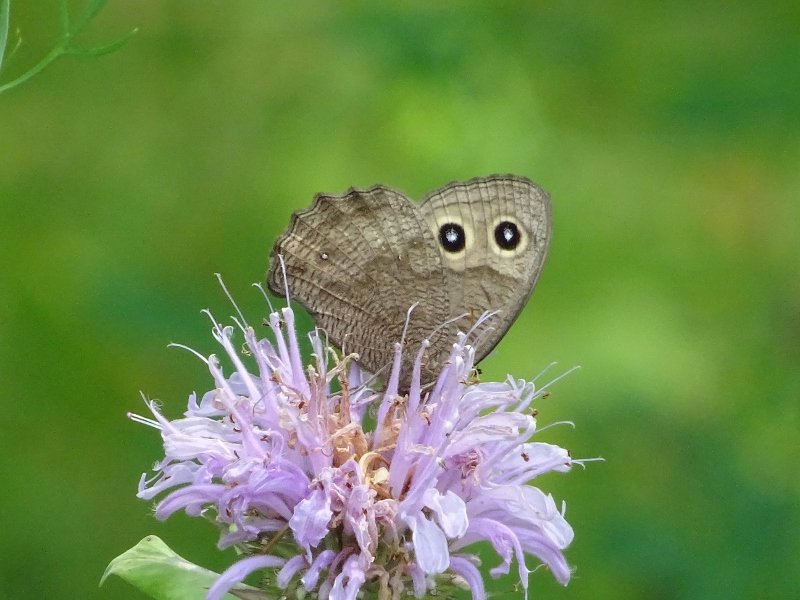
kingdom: Animalia
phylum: Arthropoda
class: Insecta
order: Lepidoptera
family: Nymphalidae
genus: Cercyonis
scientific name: Cercyonis pegala
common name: Common Wood-Nymph
